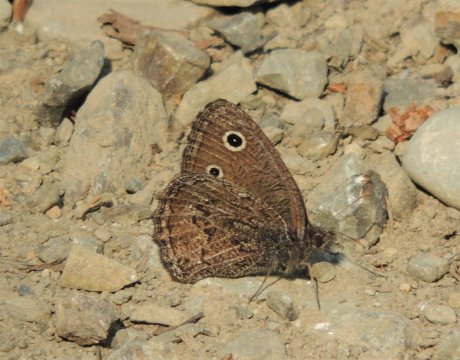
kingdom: Animalia
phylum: Arthropoda
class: Insecta
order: Lepidoptera
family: Nymphalidae
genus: Cercyonis
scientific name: Cercyonis oetus
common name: Small Wood-Nymph
